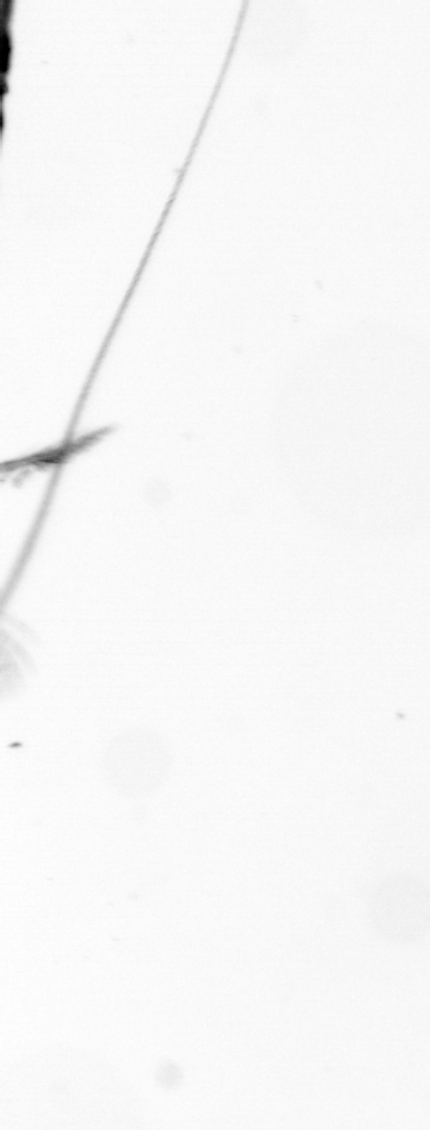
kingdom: Chromista
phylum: Ochrophyta
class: Bacillariophyceae
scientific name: Bacillariophyceae
